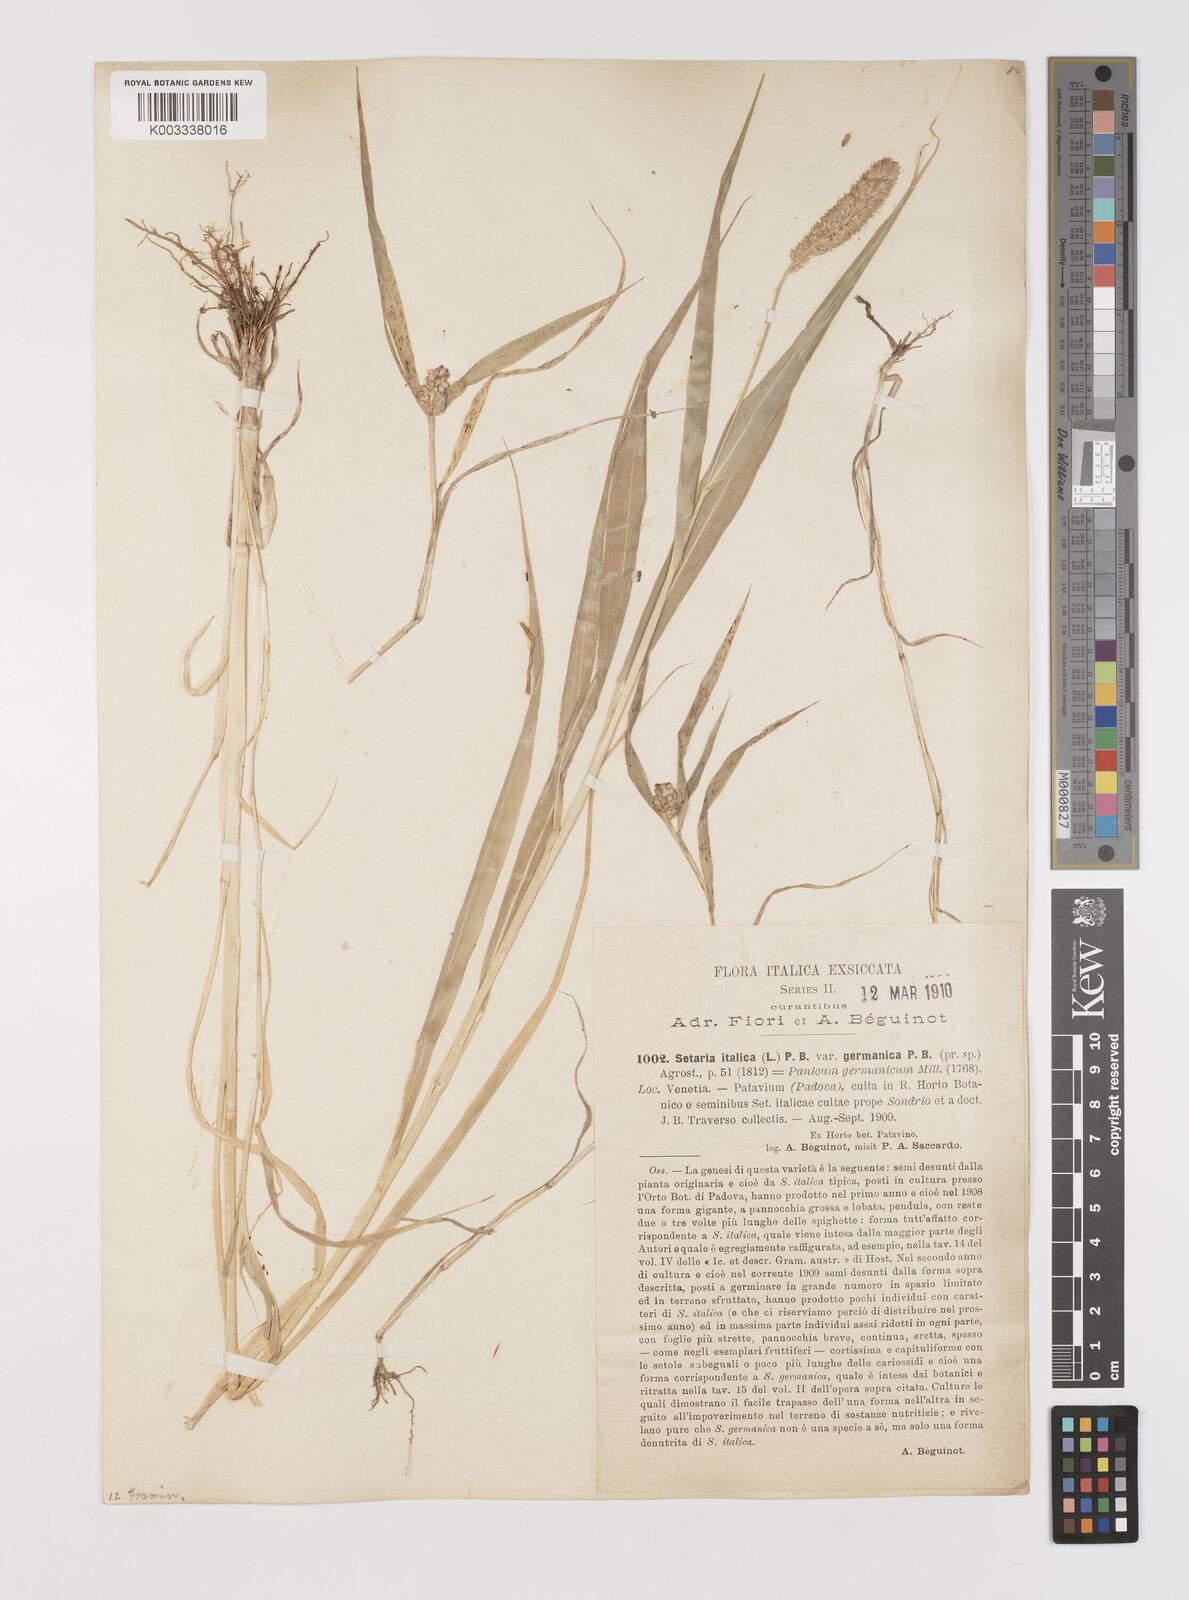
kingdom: Plantae
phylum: Tracheophyta
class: Liliopsida
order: Poales
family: Poaceae
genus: Setaria
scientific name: Setaria italica
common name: Foxtail bristle-grass
